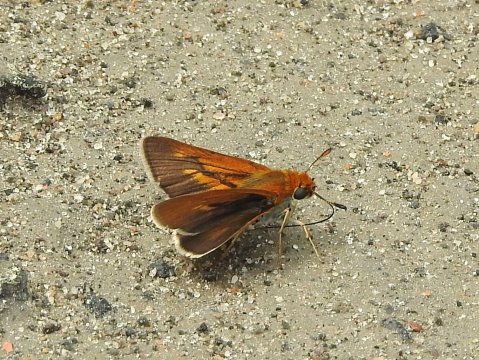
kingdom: Animalia
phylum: Arthropoda
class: Insecta
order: Lepidoptera
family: Hesperiidae
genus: Euphyes
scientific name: Euphyes bimacula
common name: Two-spotted Skipper
